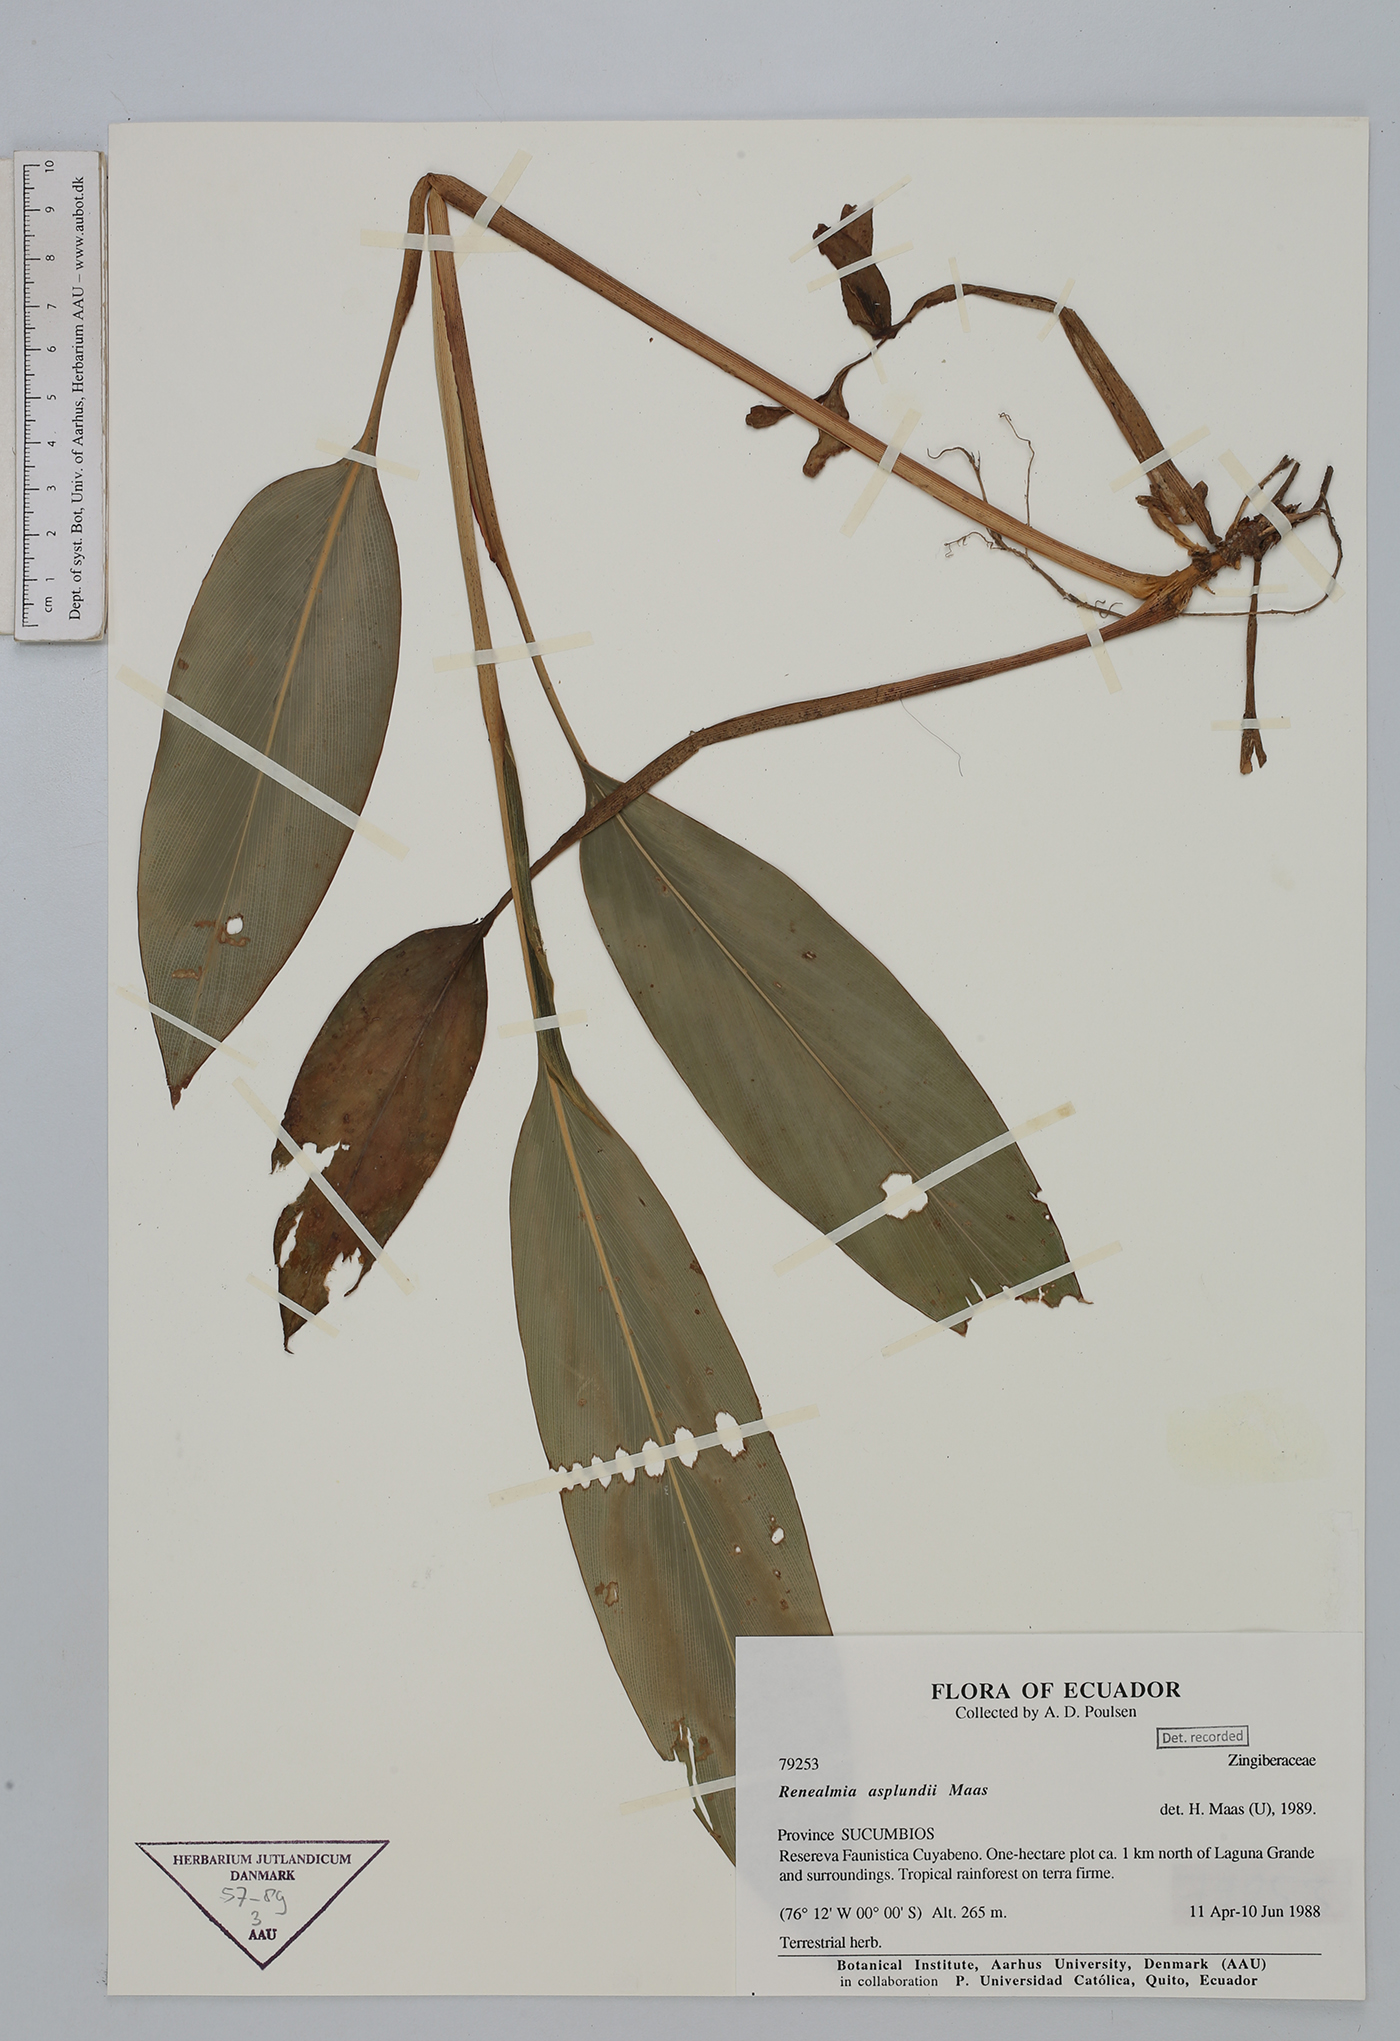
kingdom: Plantae
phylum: Tracheophyta
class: Liliopsida
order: Zingiberales
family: Zingiberaceae
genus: Renealmia
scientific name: Renealmia asplundii
